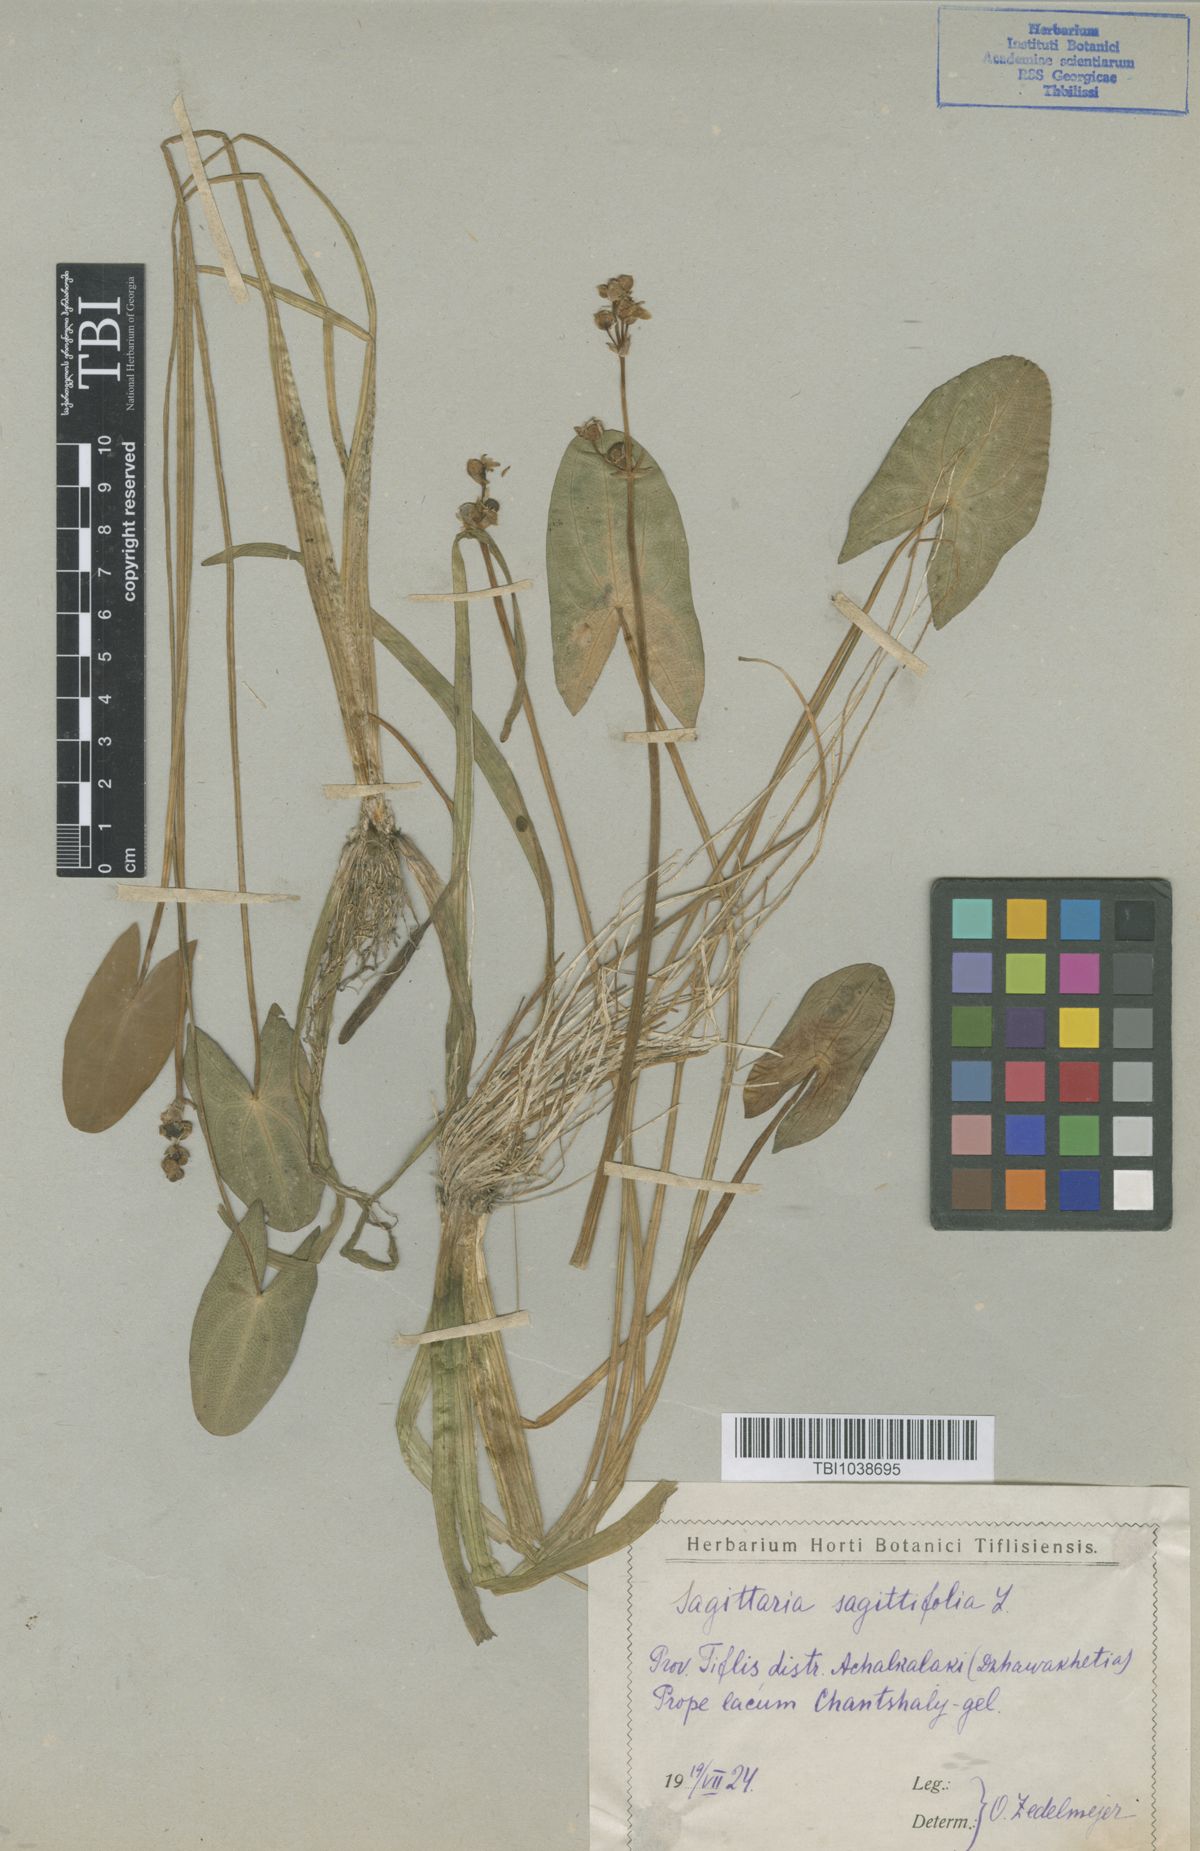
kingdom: Plantae
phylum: Tracheophyta
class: Liliopsida
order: Alismatales
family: Alismataceae
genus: Sagittaria
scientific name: Sagittaria sagittifolia
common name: Arrowhead
